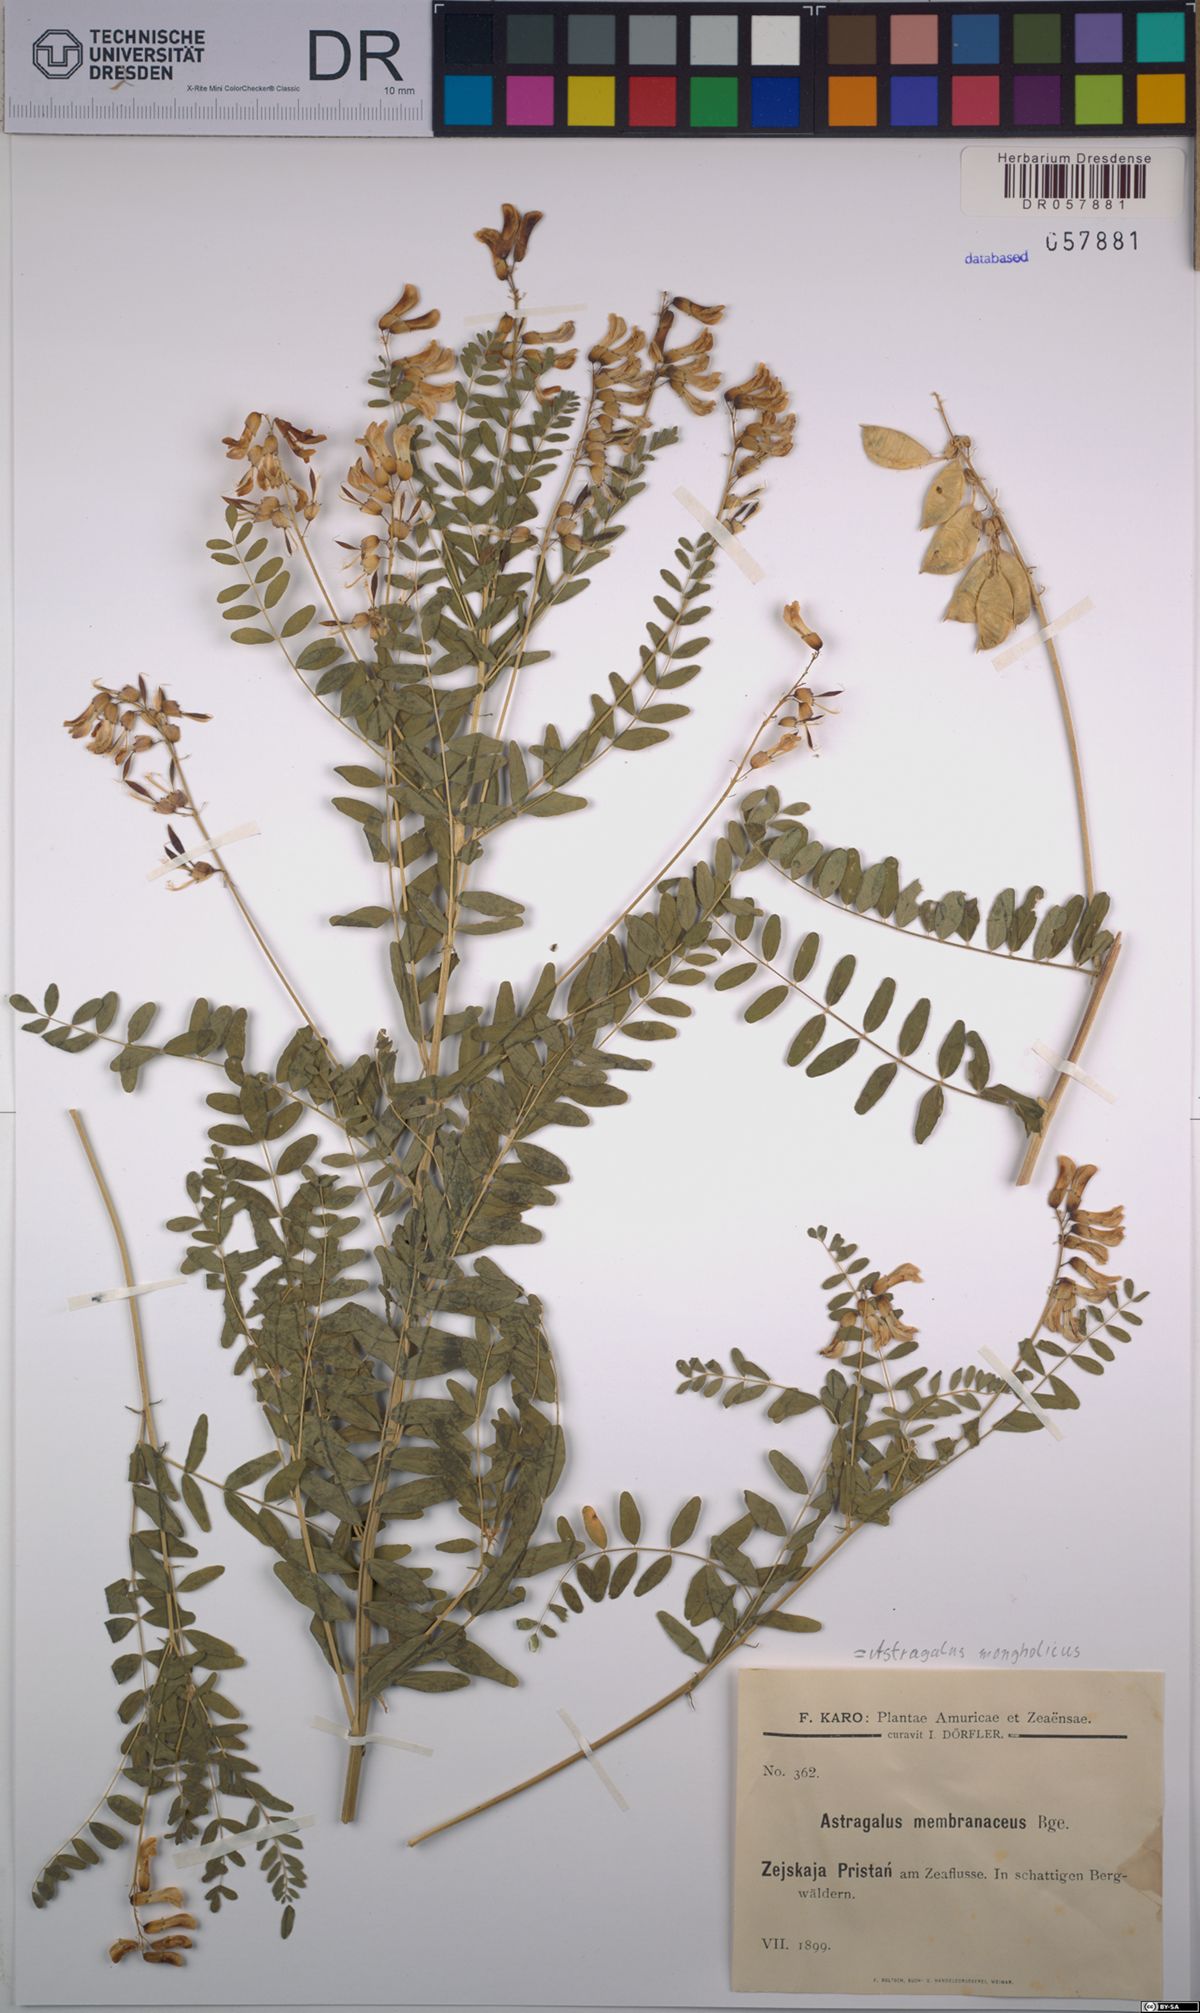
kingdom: Plantae
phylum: Tracheophyta
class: Magnoliopsida
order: Fabales
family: Fabaceae
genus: Astragalus
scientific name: Astragalus mongholicus
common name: Membranous milk-vetch
